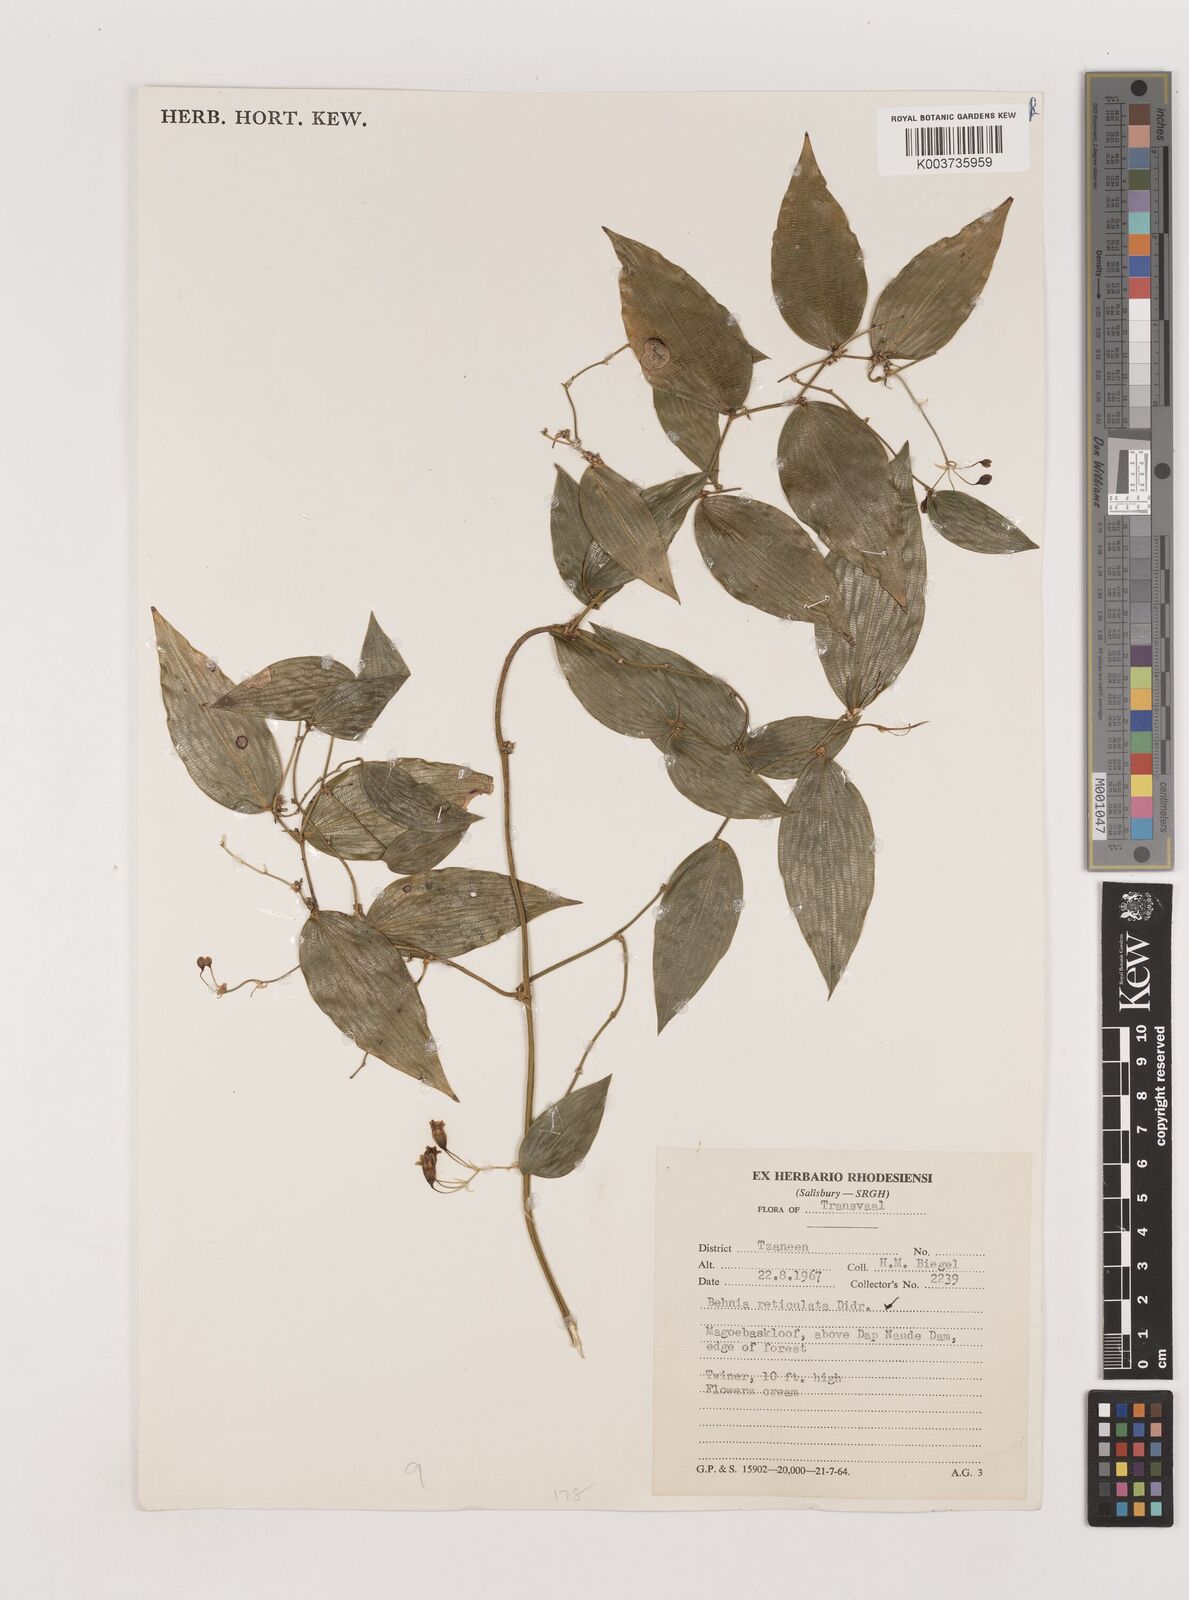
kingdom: Plantae
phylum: Tracheophyta
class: Liliopsida
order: Asparagales
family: Asparagaceae
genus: Behnia
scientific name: Behnia reticulata
